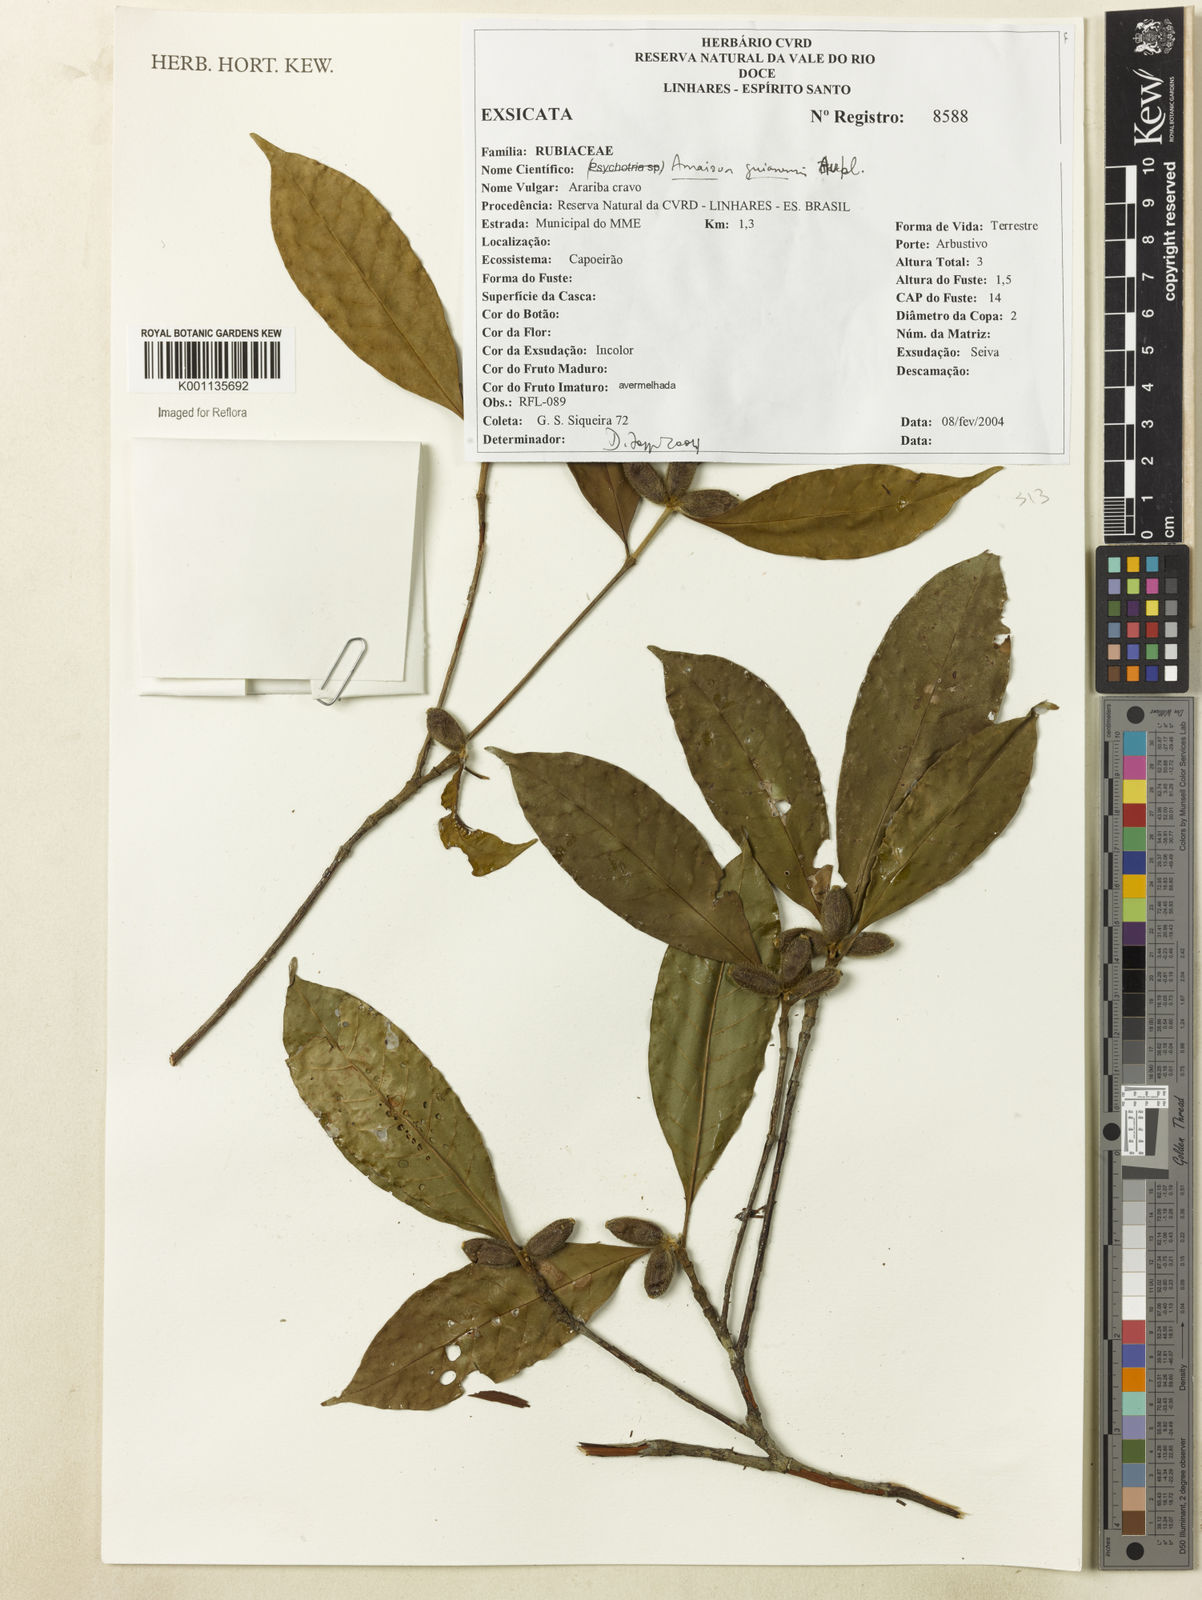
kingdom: Plantae
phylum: Tracheophyta
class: Magnoliopsida
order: Gentianales
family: Rubiaceae
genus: Amaioua
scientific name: Amaioua guianensis
